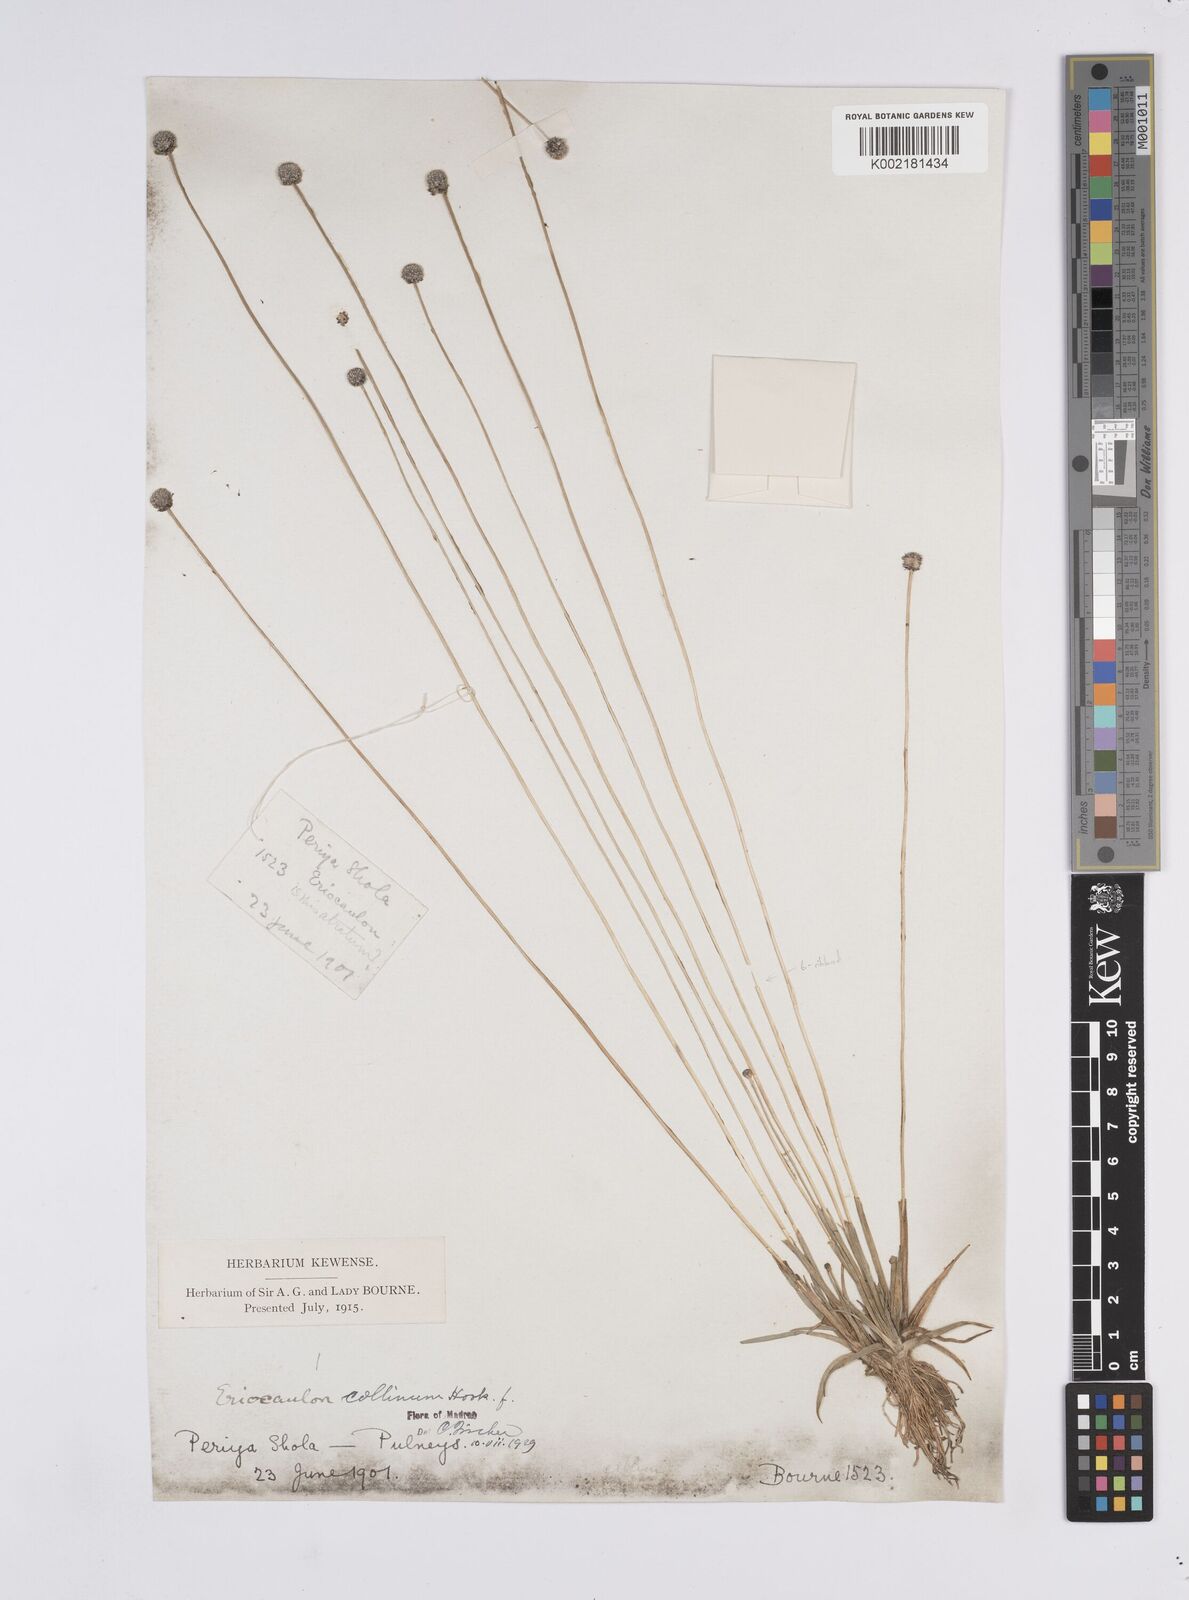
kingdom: Plantae
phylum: Tracheophyta
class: Liliopsida
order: Poales
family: Eriocaulaceae
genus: Eriocaulon
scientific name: Eriocaulon odoratum
